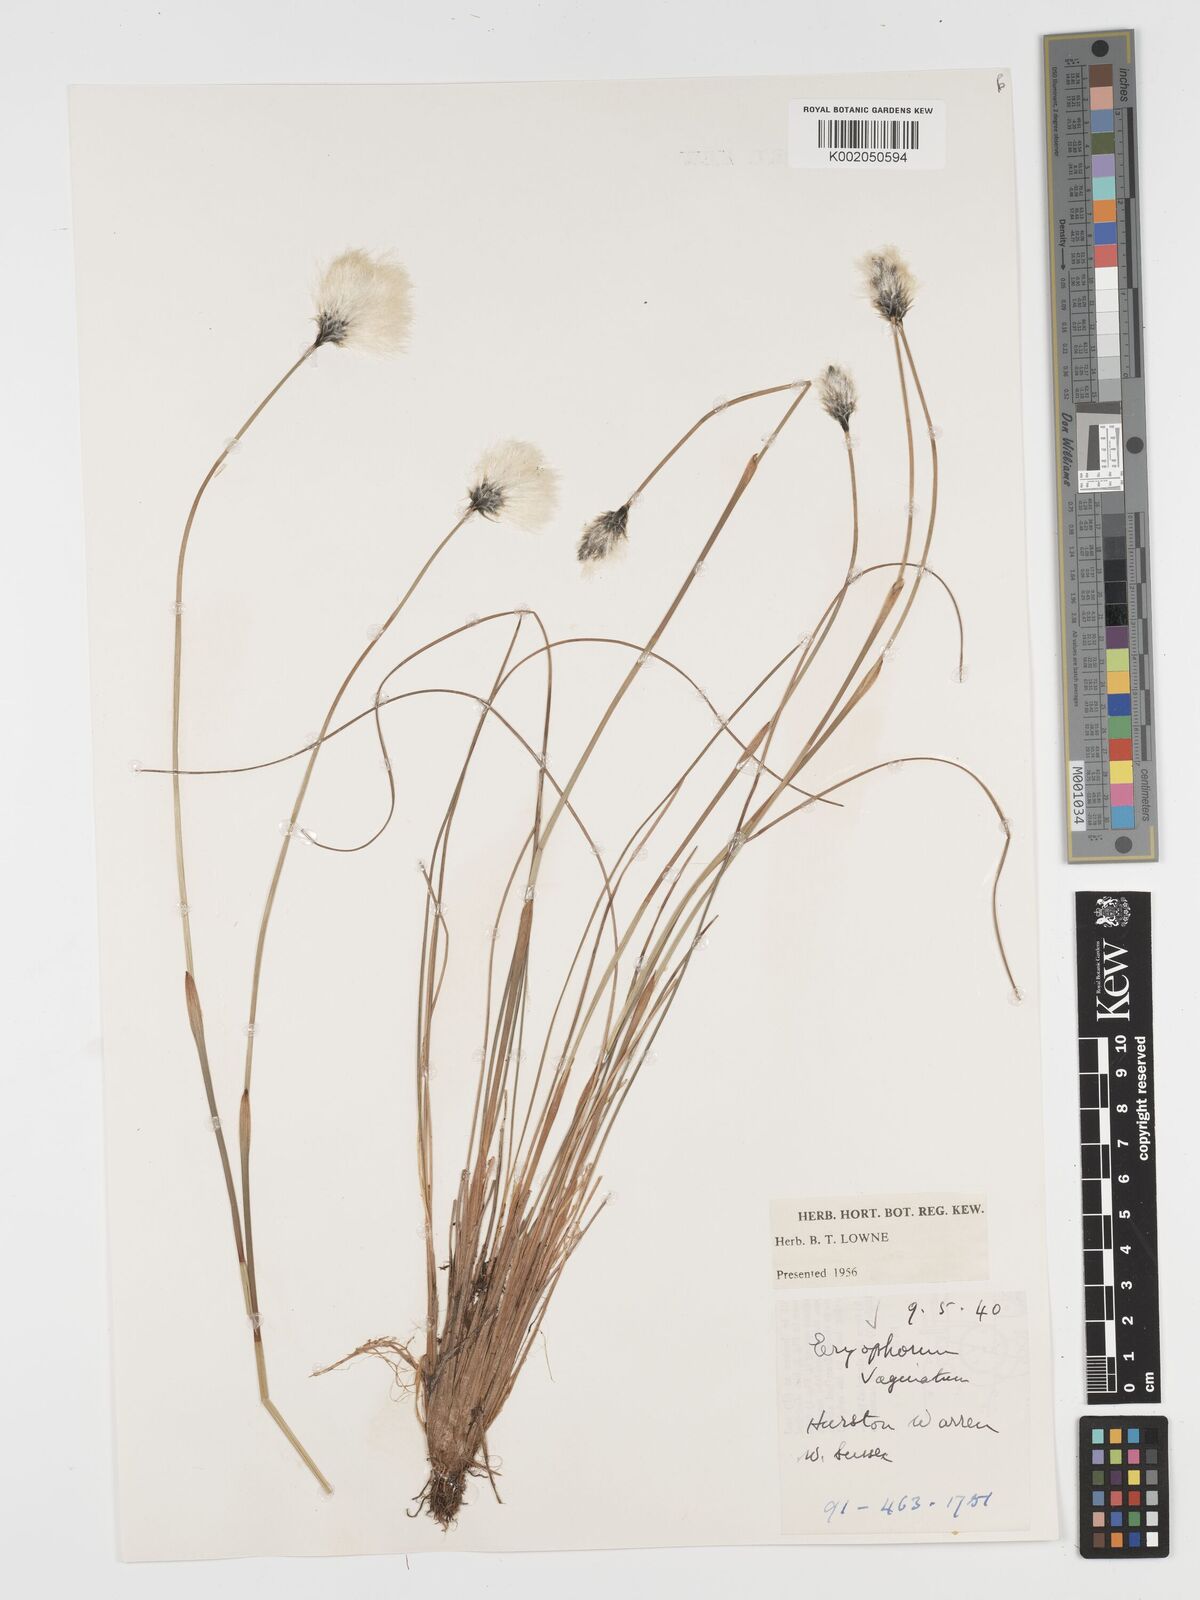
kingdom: Plantae
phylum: Tracheophyta
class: Liliopsida
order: Poales
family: Cyperaceae
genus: Eriophorum
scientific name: Eriophorum vaginatum
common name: Hare's-tail cottongrass
